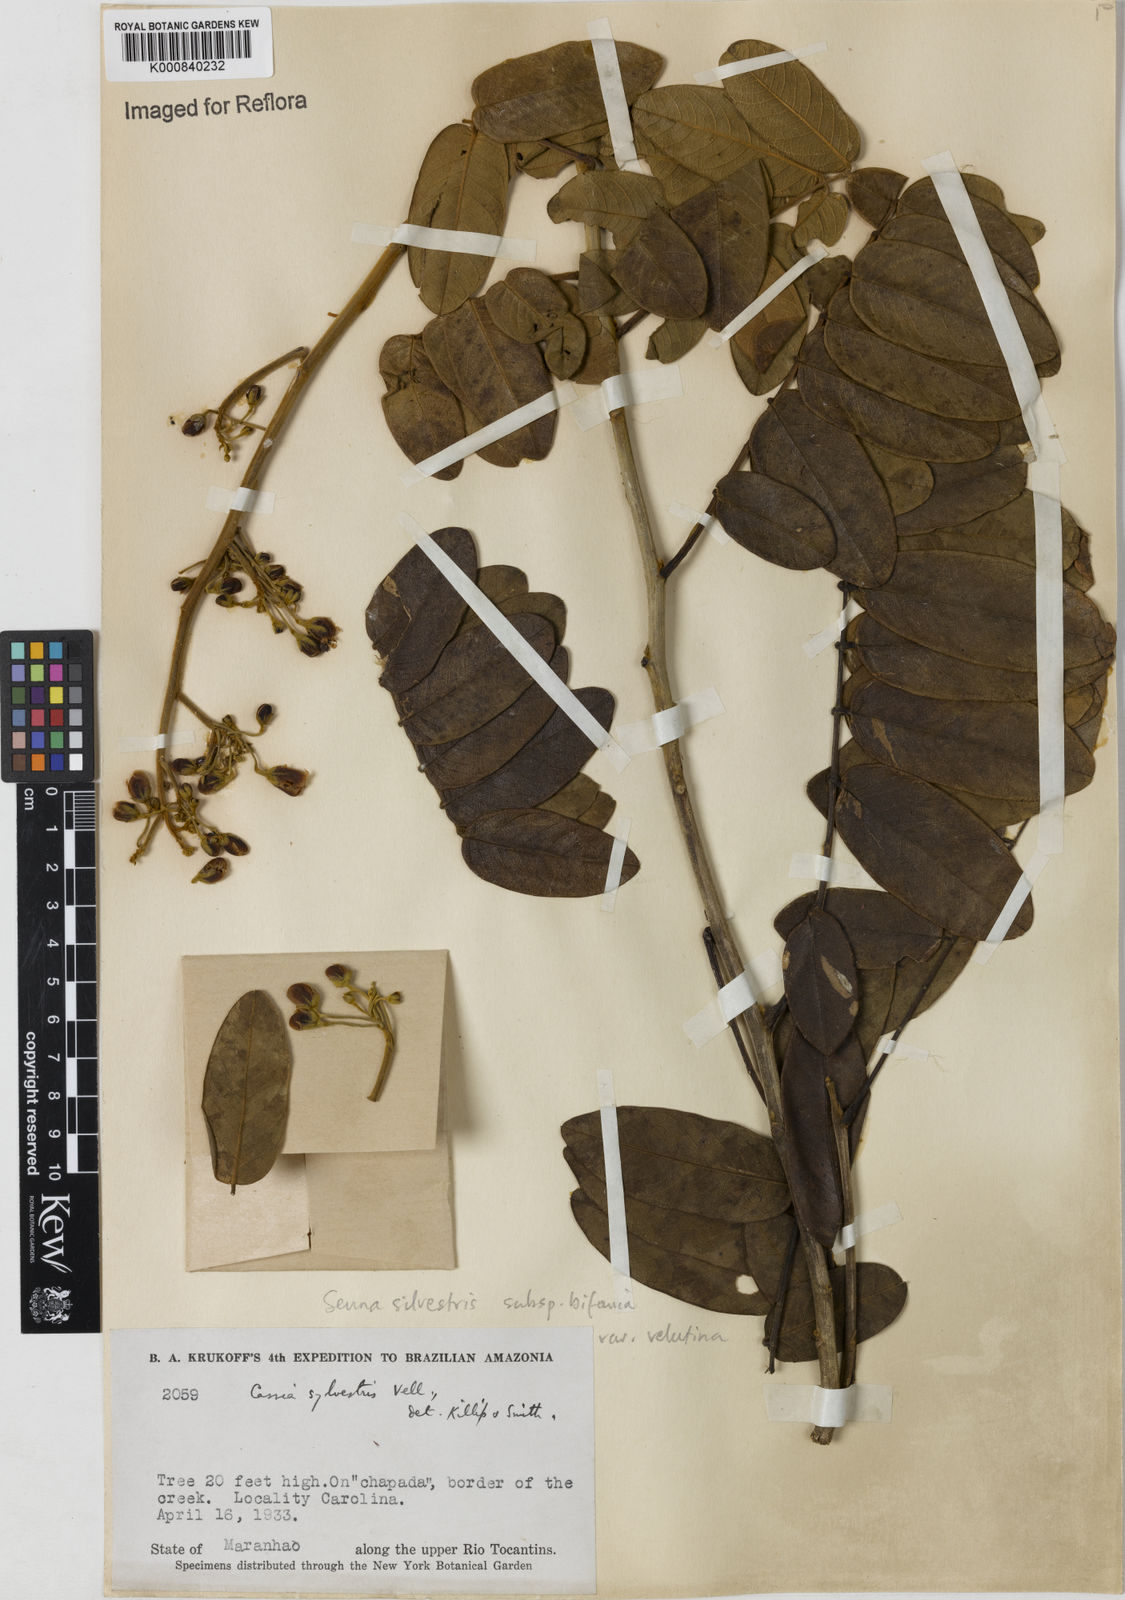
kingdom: Plantae
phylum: Tracheophyta
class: Magnoliopsida
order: Fabales
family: Fabaceae
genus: Senna
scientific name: Senna silvestris
